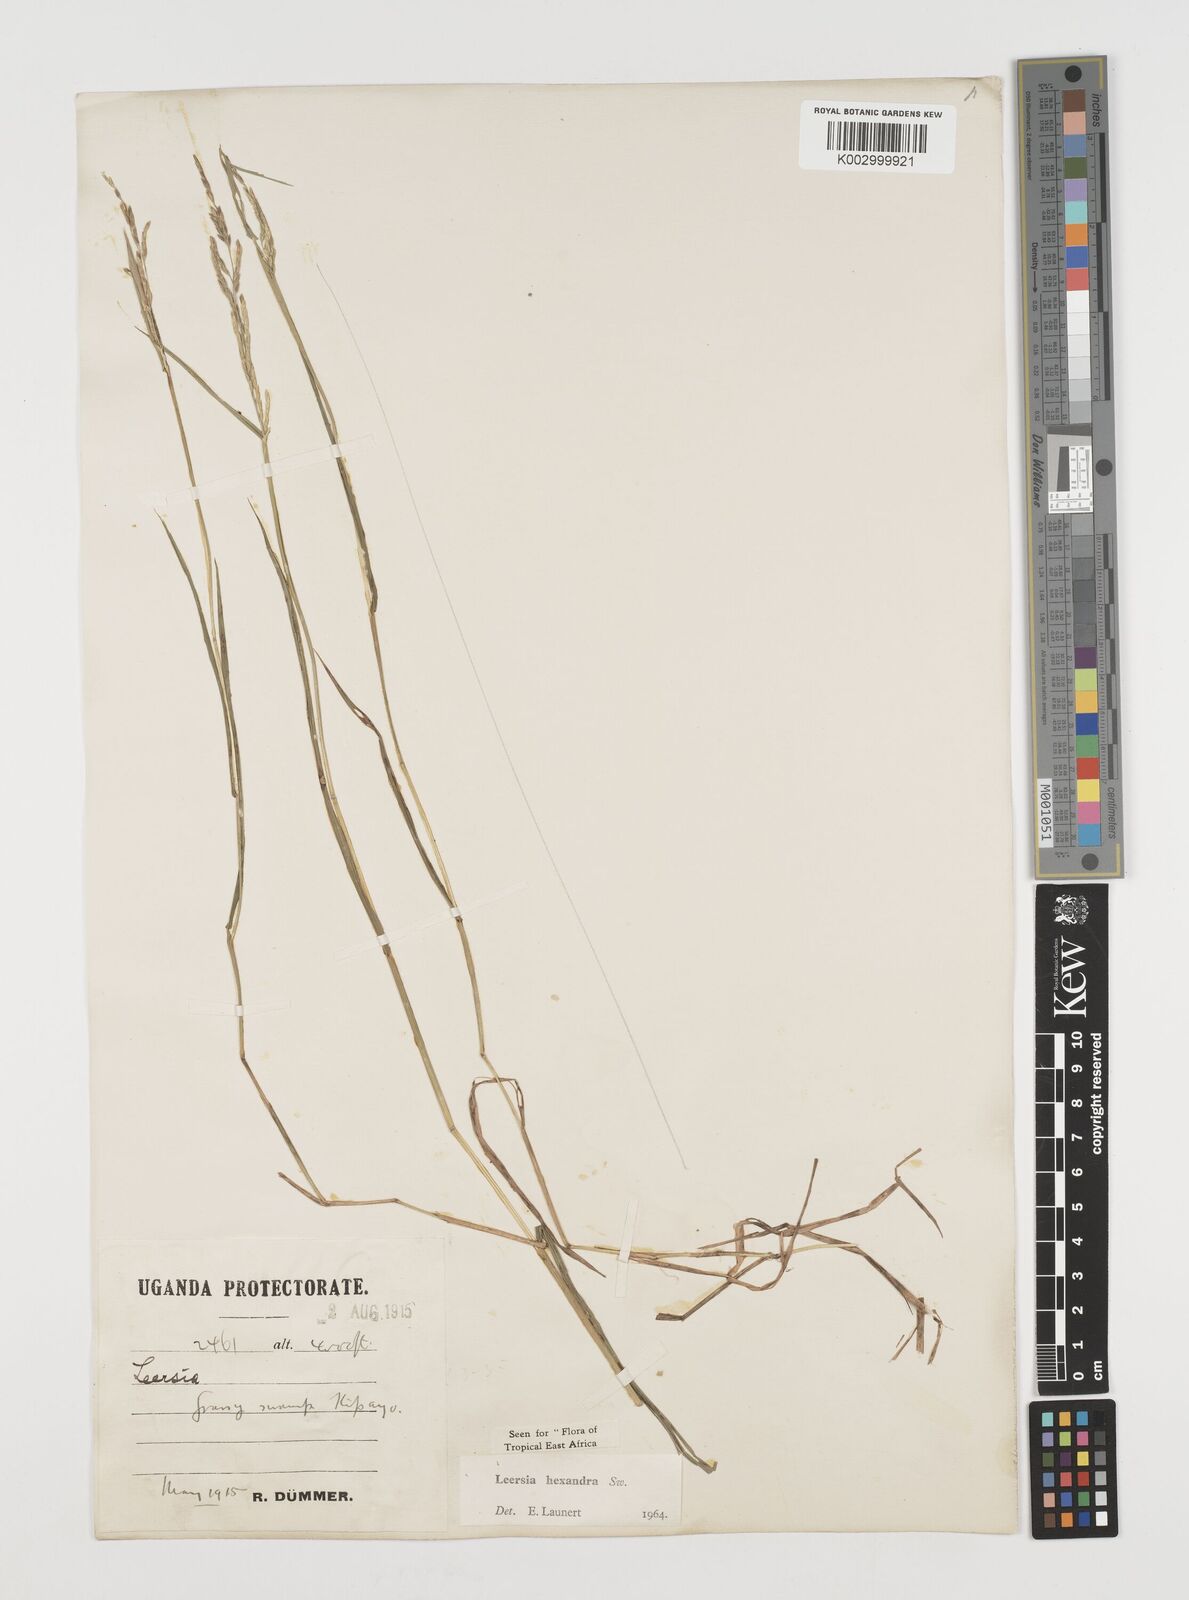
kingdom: Plantae
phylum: Tracheophyta
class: Liliopsida
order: Poales
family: Poaceae
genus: Leersia
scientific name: Leersia hexandra
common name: Southern cut grass
